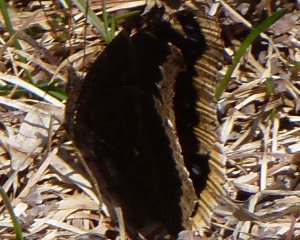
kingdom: Animalia
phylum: Arthropoda
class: Insecta
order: Lepidoptera
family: Nymphalidae
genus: Nymphalis
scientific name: Nymphalis antiopa
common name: Mourning Cloak
